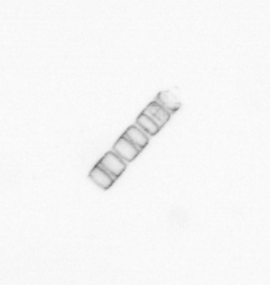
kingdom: Chromista
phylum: Ochrophyta
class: Bacillariophyceae
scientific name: Bacillariophyceae
